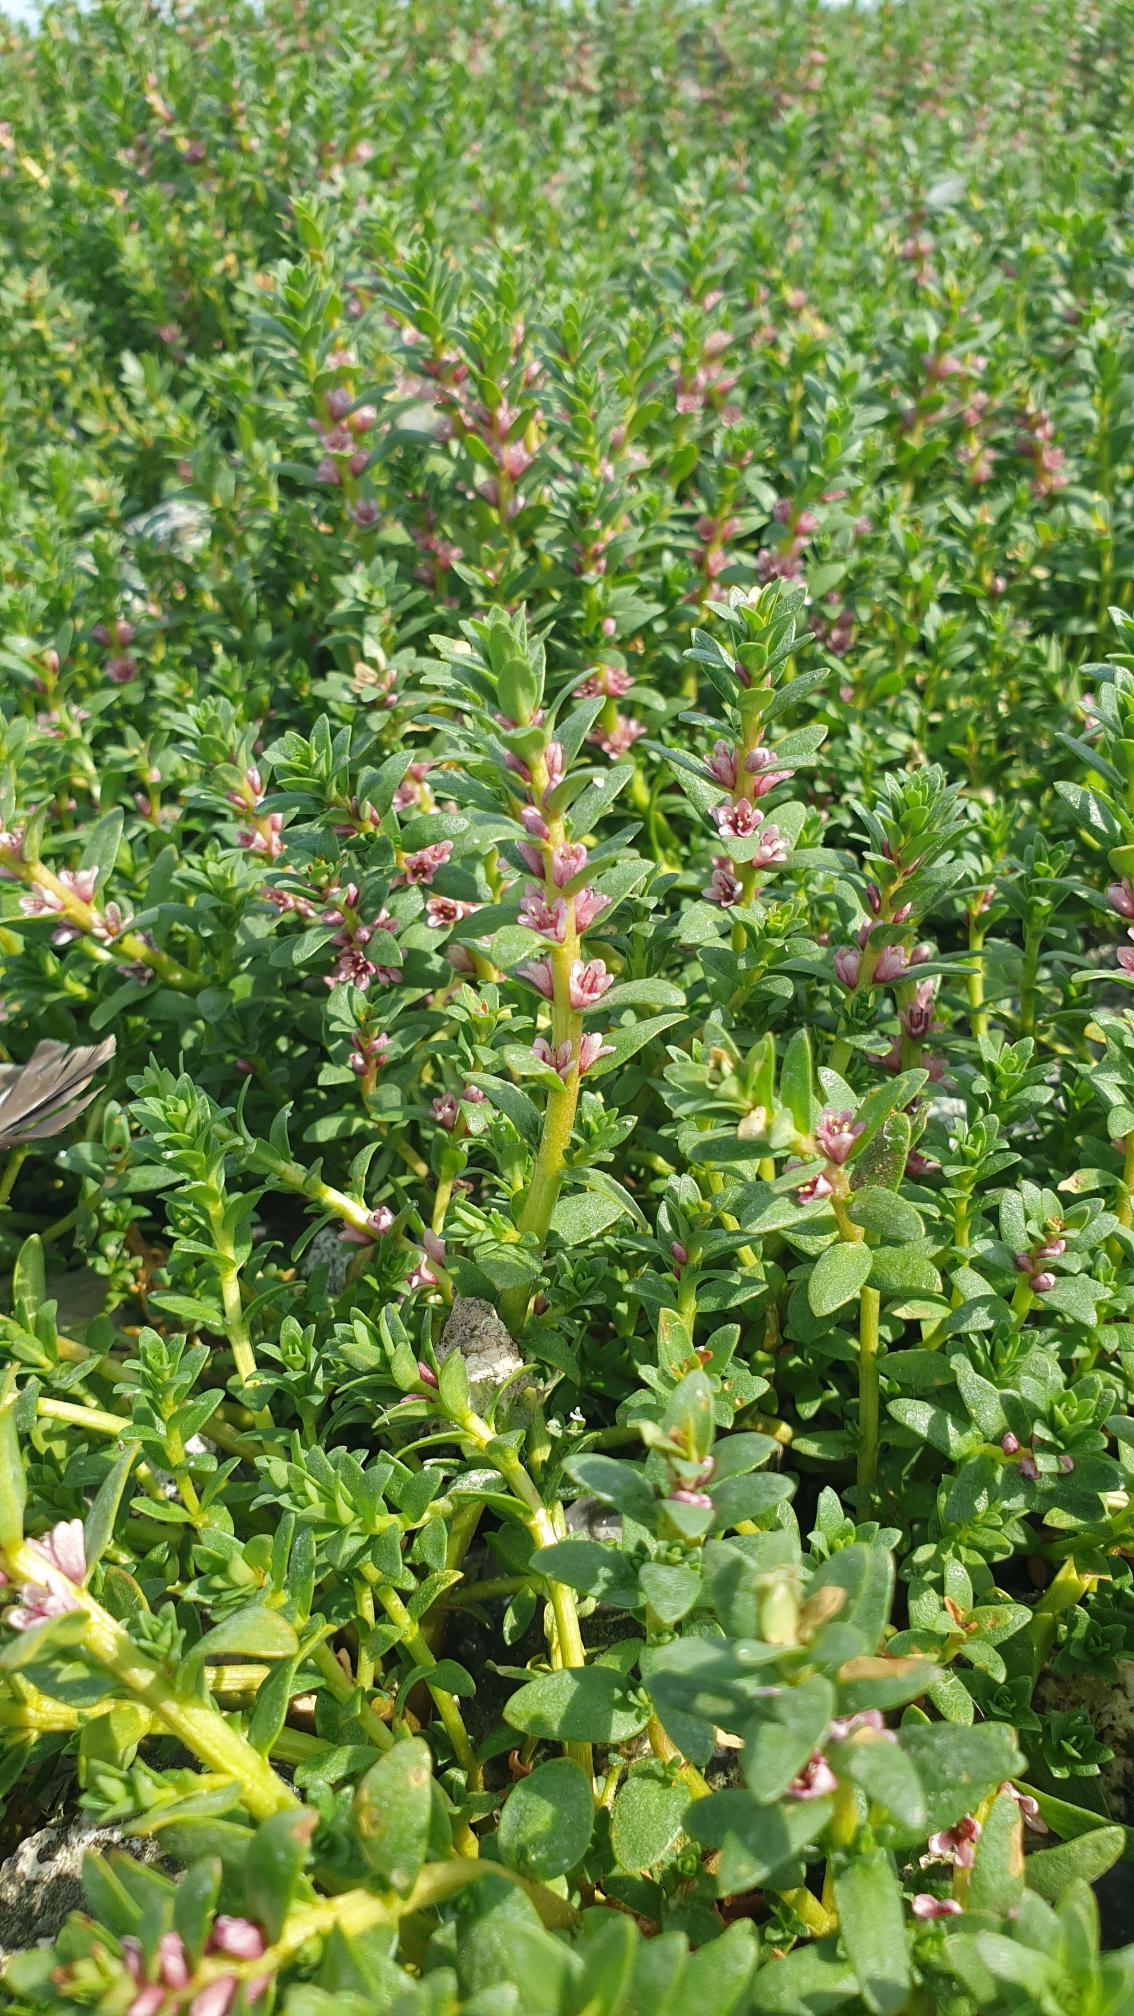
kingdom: Plantae
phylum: Tracheophyta
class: Magnoliopsida
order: Ericales
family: Primulaceae
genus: Lysimachia
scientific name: Lysimachia maritima
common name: Sandkryb
